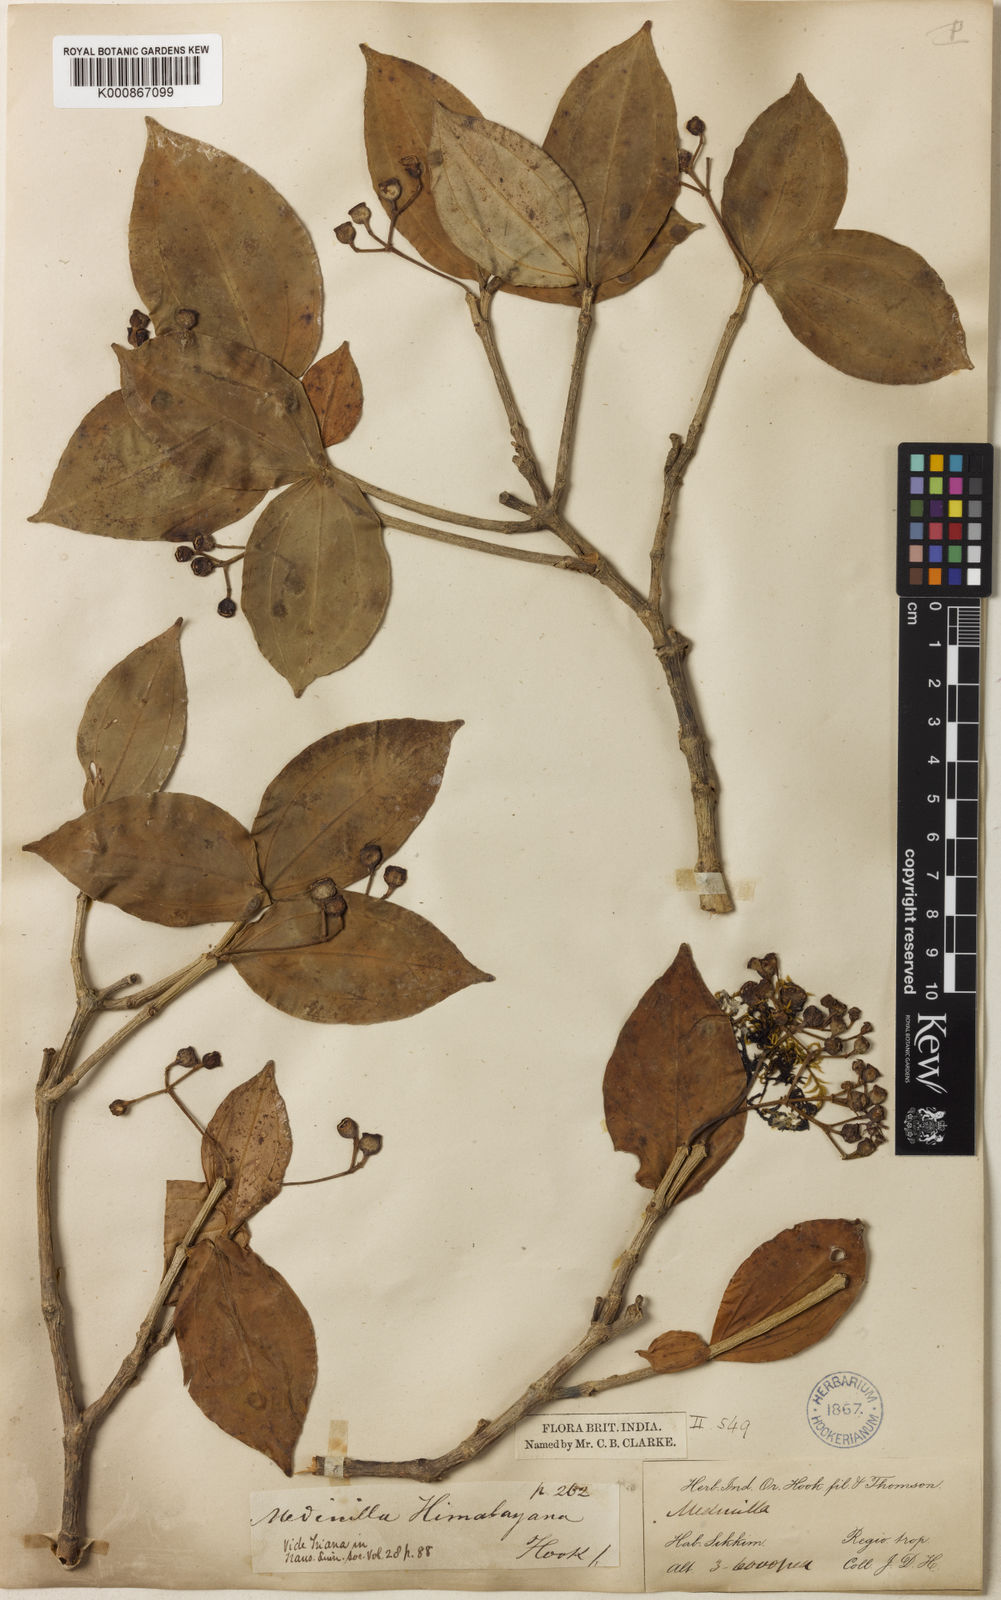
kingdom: Plantae
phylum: Tracheophyta
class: Magnoliopsida
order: Myrtales
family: Melastomataceae
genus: Medinilla
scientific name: Medinilla himalayana
